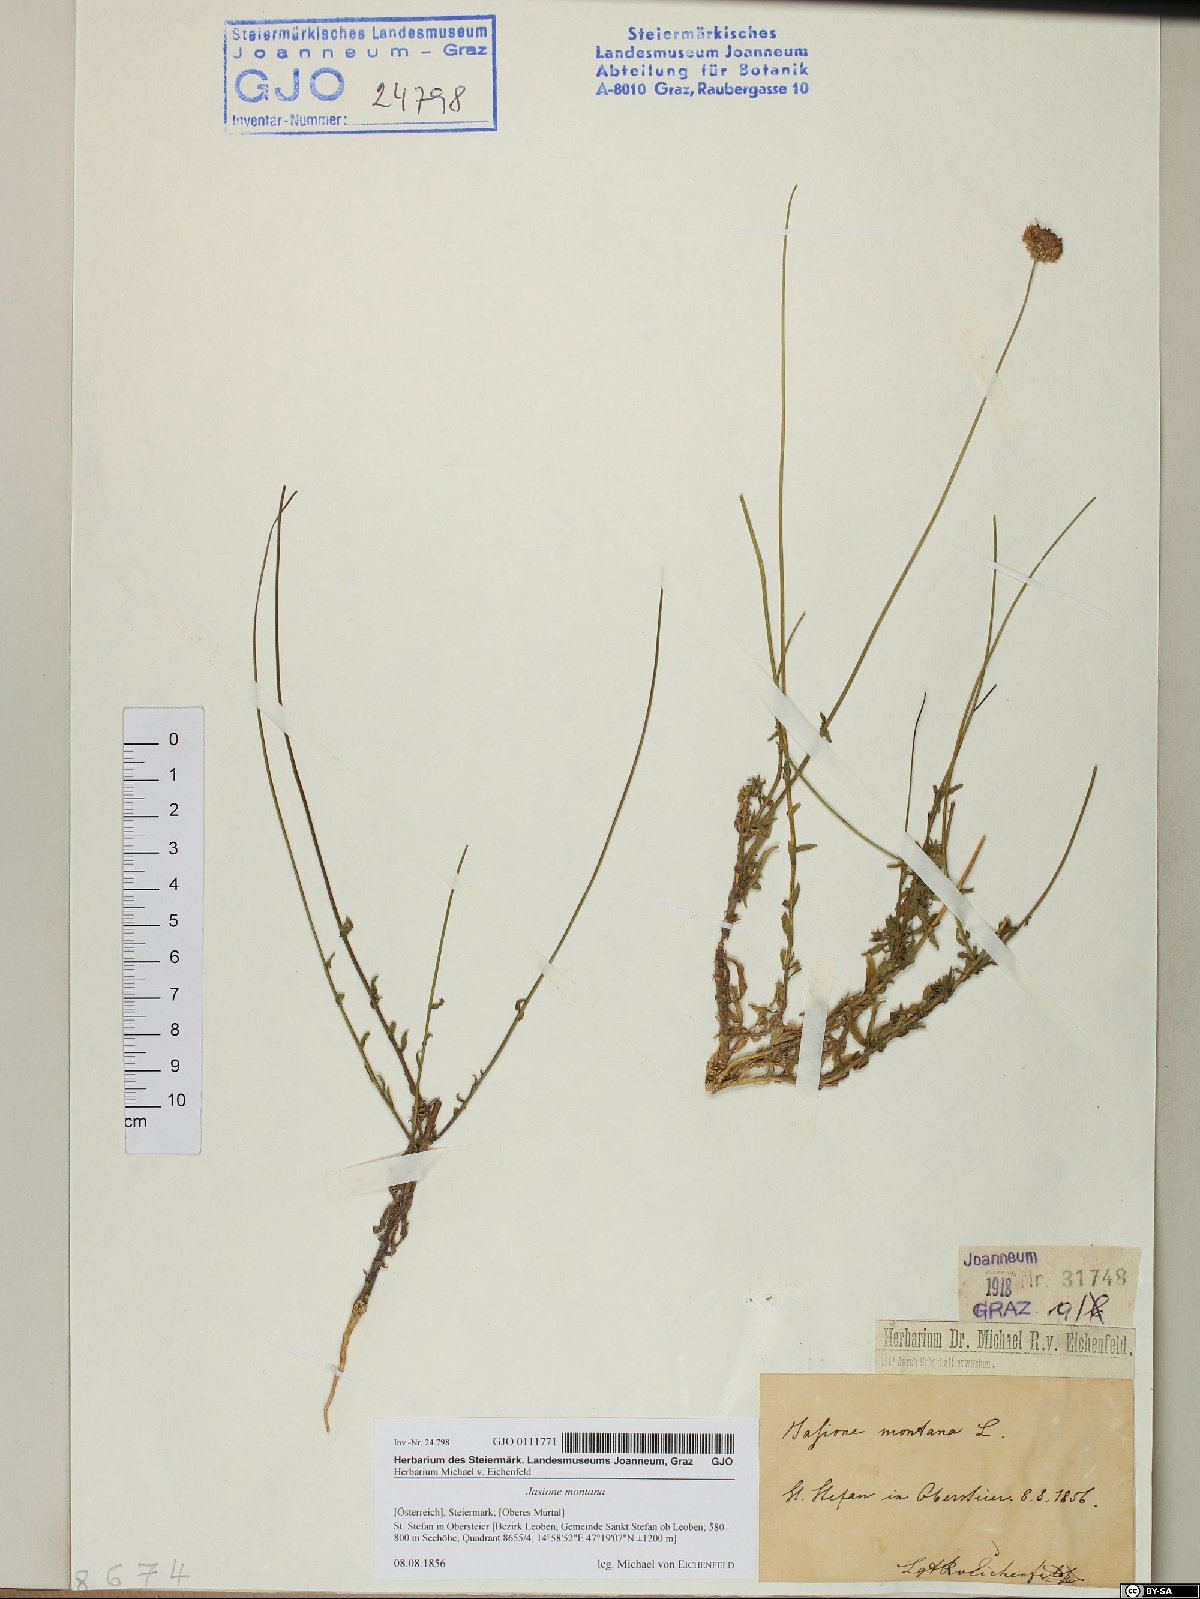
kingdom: Plantae
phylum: Tracheophyta
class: Magnoliopsida
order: Asterales
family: Campanulaceae
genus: Jasione
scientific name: Jasione montana
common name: Sheep's-bit
